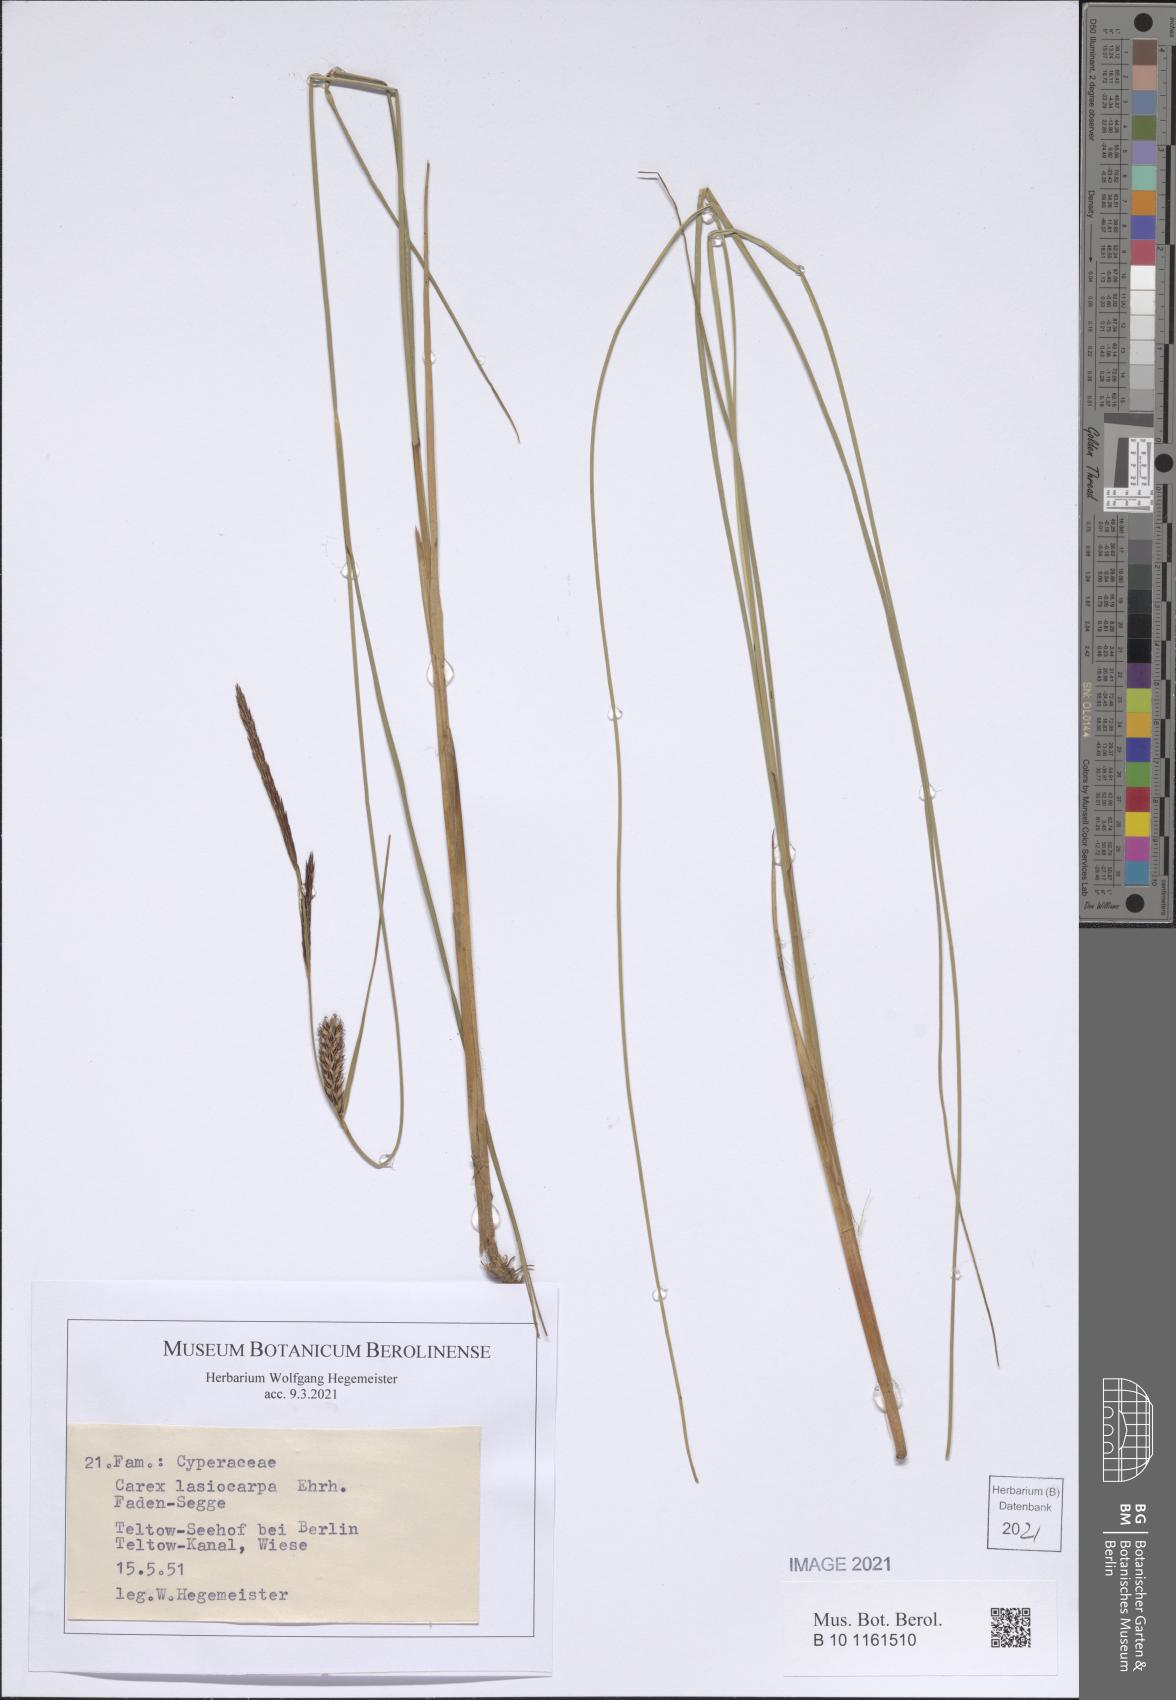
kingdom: Plantae
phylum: Tracheophyta
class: Liliopsida
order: Poales
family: Cyperaceae
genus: Carex
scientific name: Carex lasiocarpa
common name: Slender sedge
